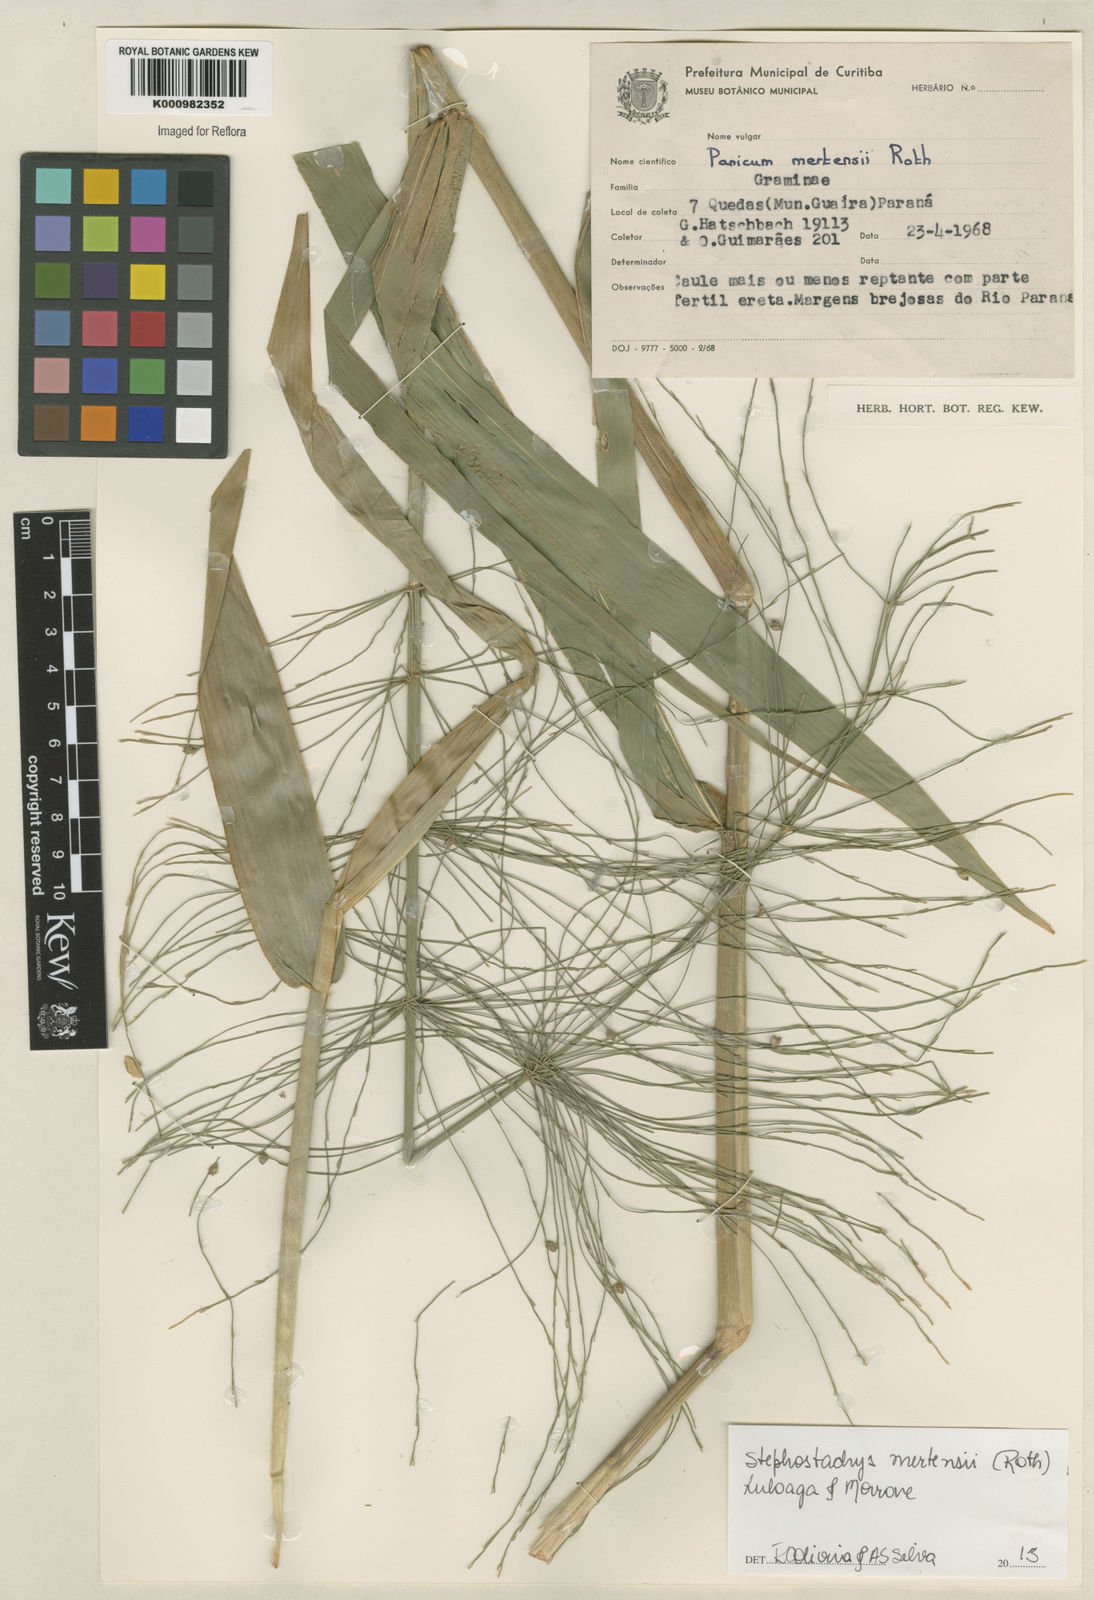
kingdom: Plantae
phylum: Tracheophyta
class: Liliopsida
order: Poales
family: Poaceae
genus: Stephostachys
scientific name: Stephostachys mertensii
